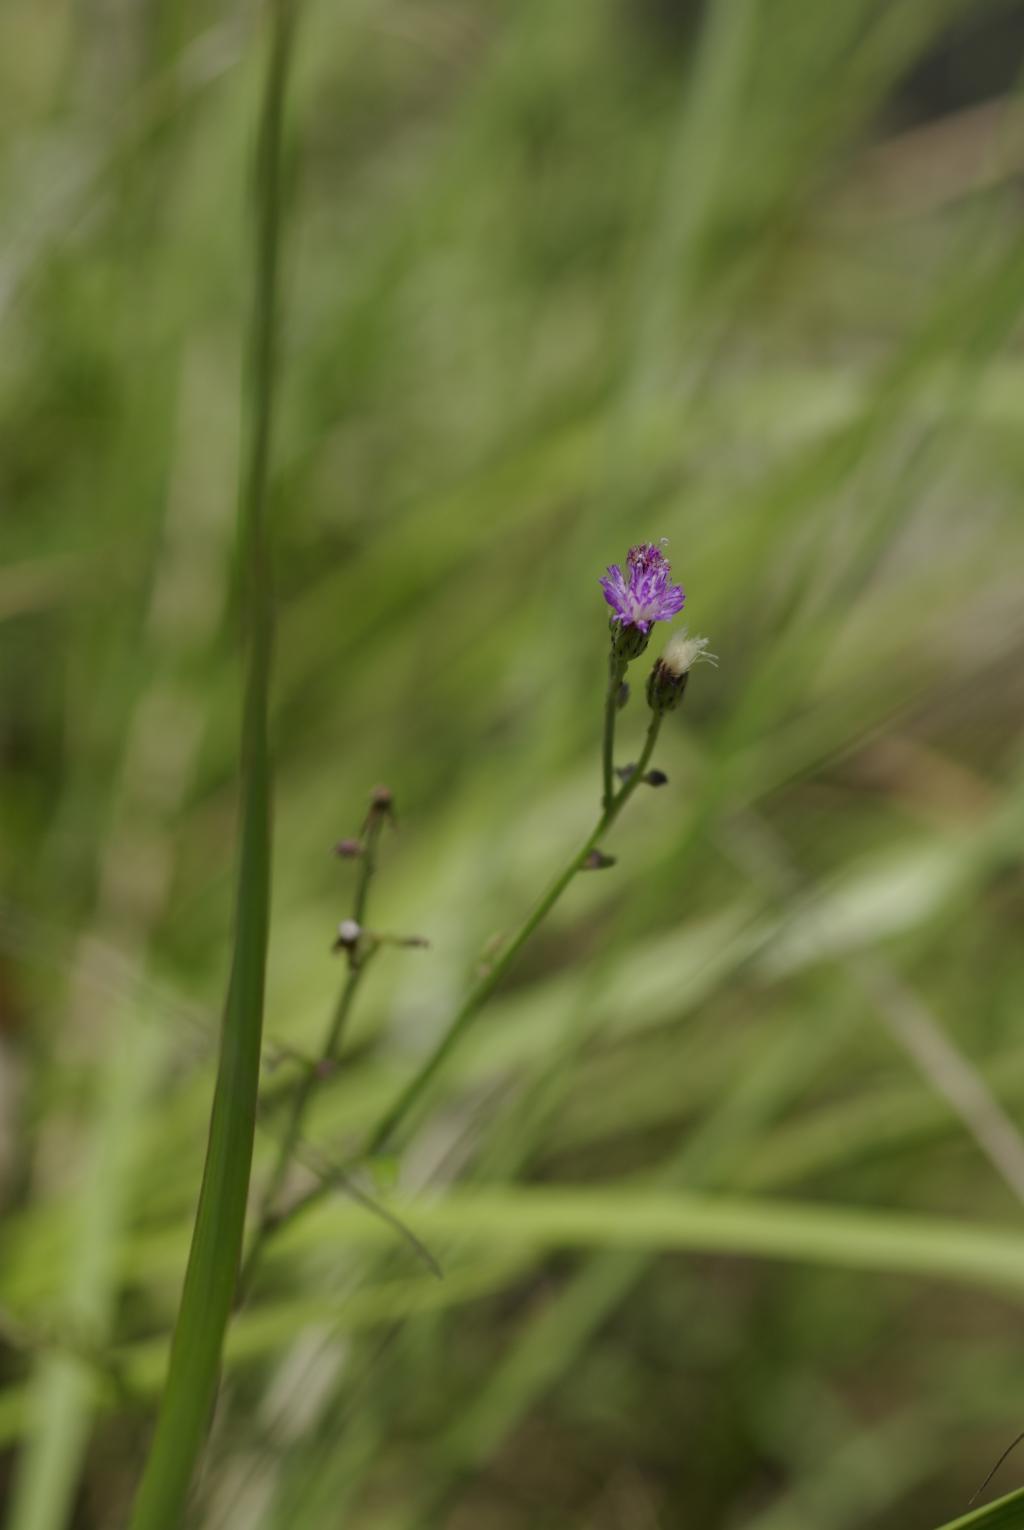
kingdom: Plantae
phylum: Tracheophyta
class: Magnoliopsida
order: Asterales
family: Asteraceae
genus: Cyanthillium
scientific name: Cyanthillium cinereum
